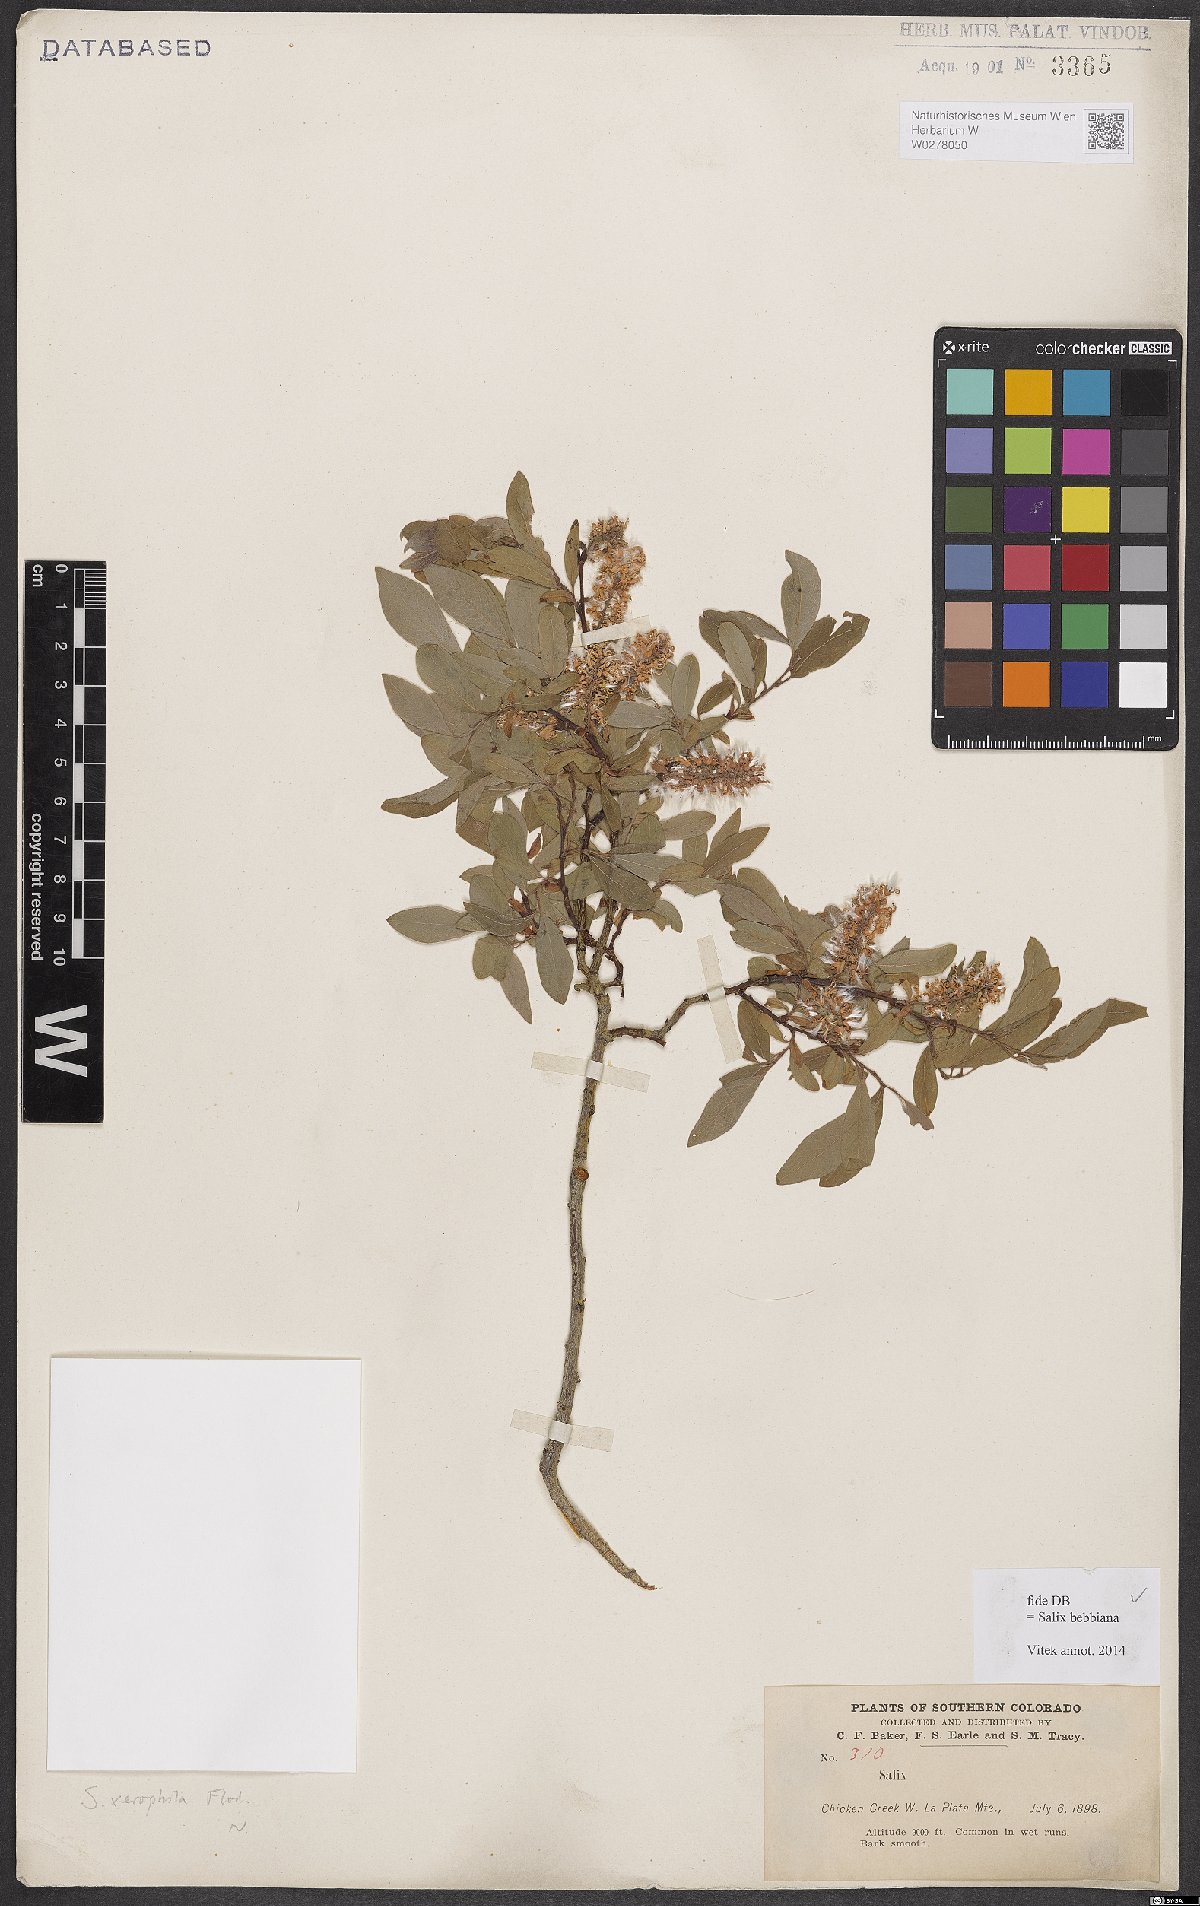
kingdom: Plantae
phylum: Tracheophyta
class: Magnoliopsida
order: Malpighiales
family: Salicaceae
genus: Salix
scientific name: Salix bebbiana
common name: Bebb's willow
